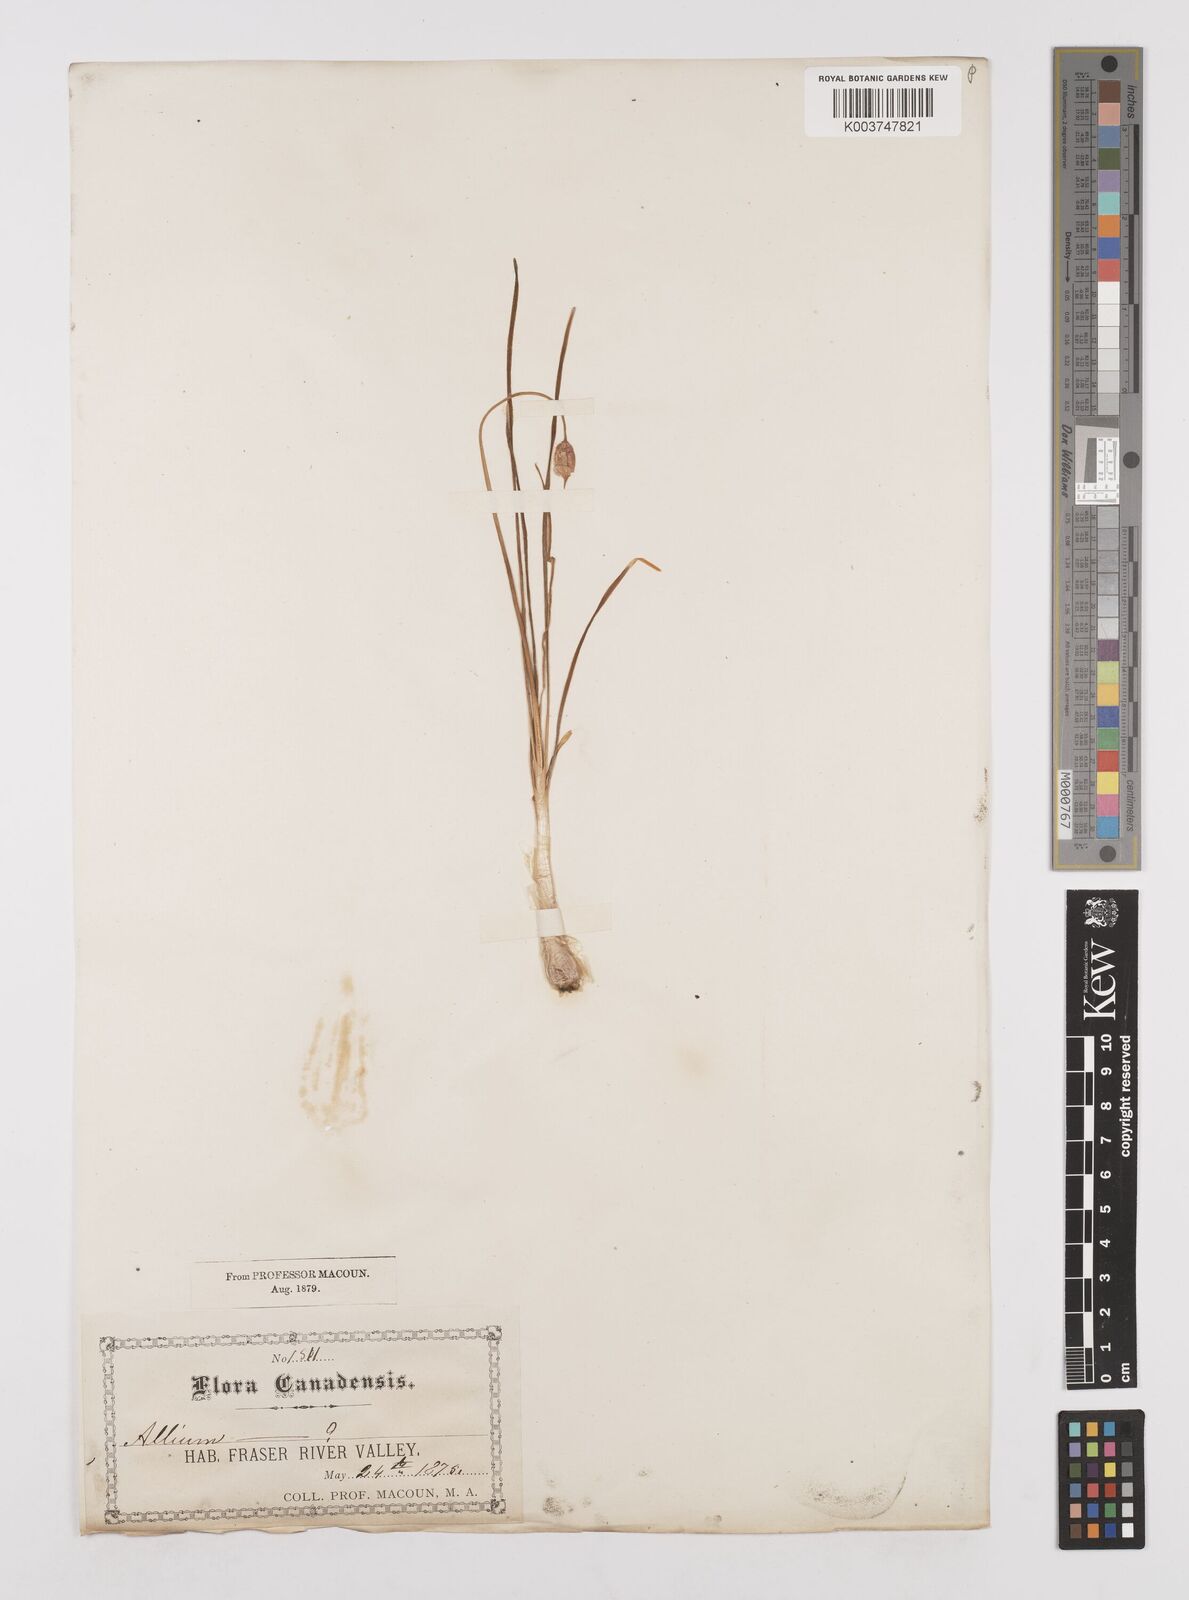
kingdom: Plantae
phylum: Tracheophyta
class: Liliopsida
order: Asparagales
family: Amaryllidaceae
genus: Allium
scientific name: Allium cernuum
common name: Nodding onion
